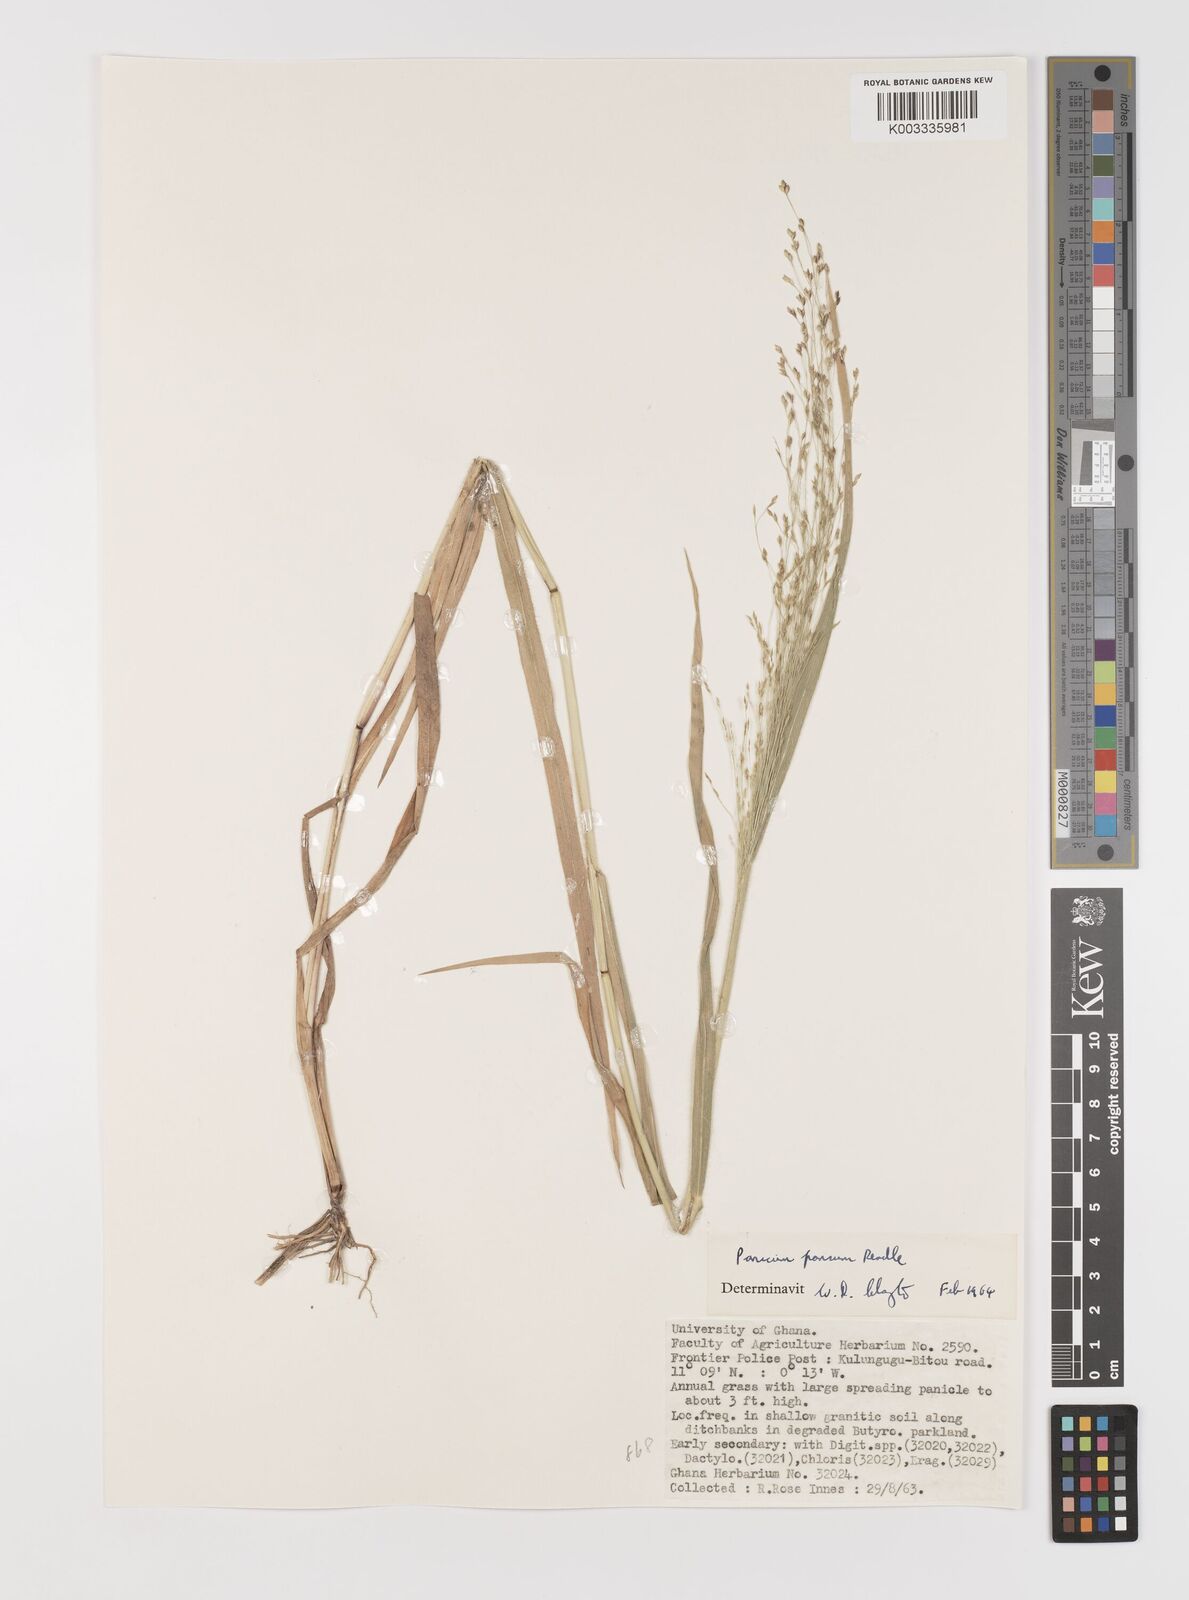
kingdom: Plantae
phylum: Tracheophyta
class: Liliopsida
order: Poales
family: Poaceae
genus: Panicum
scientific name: Panicum pansum
